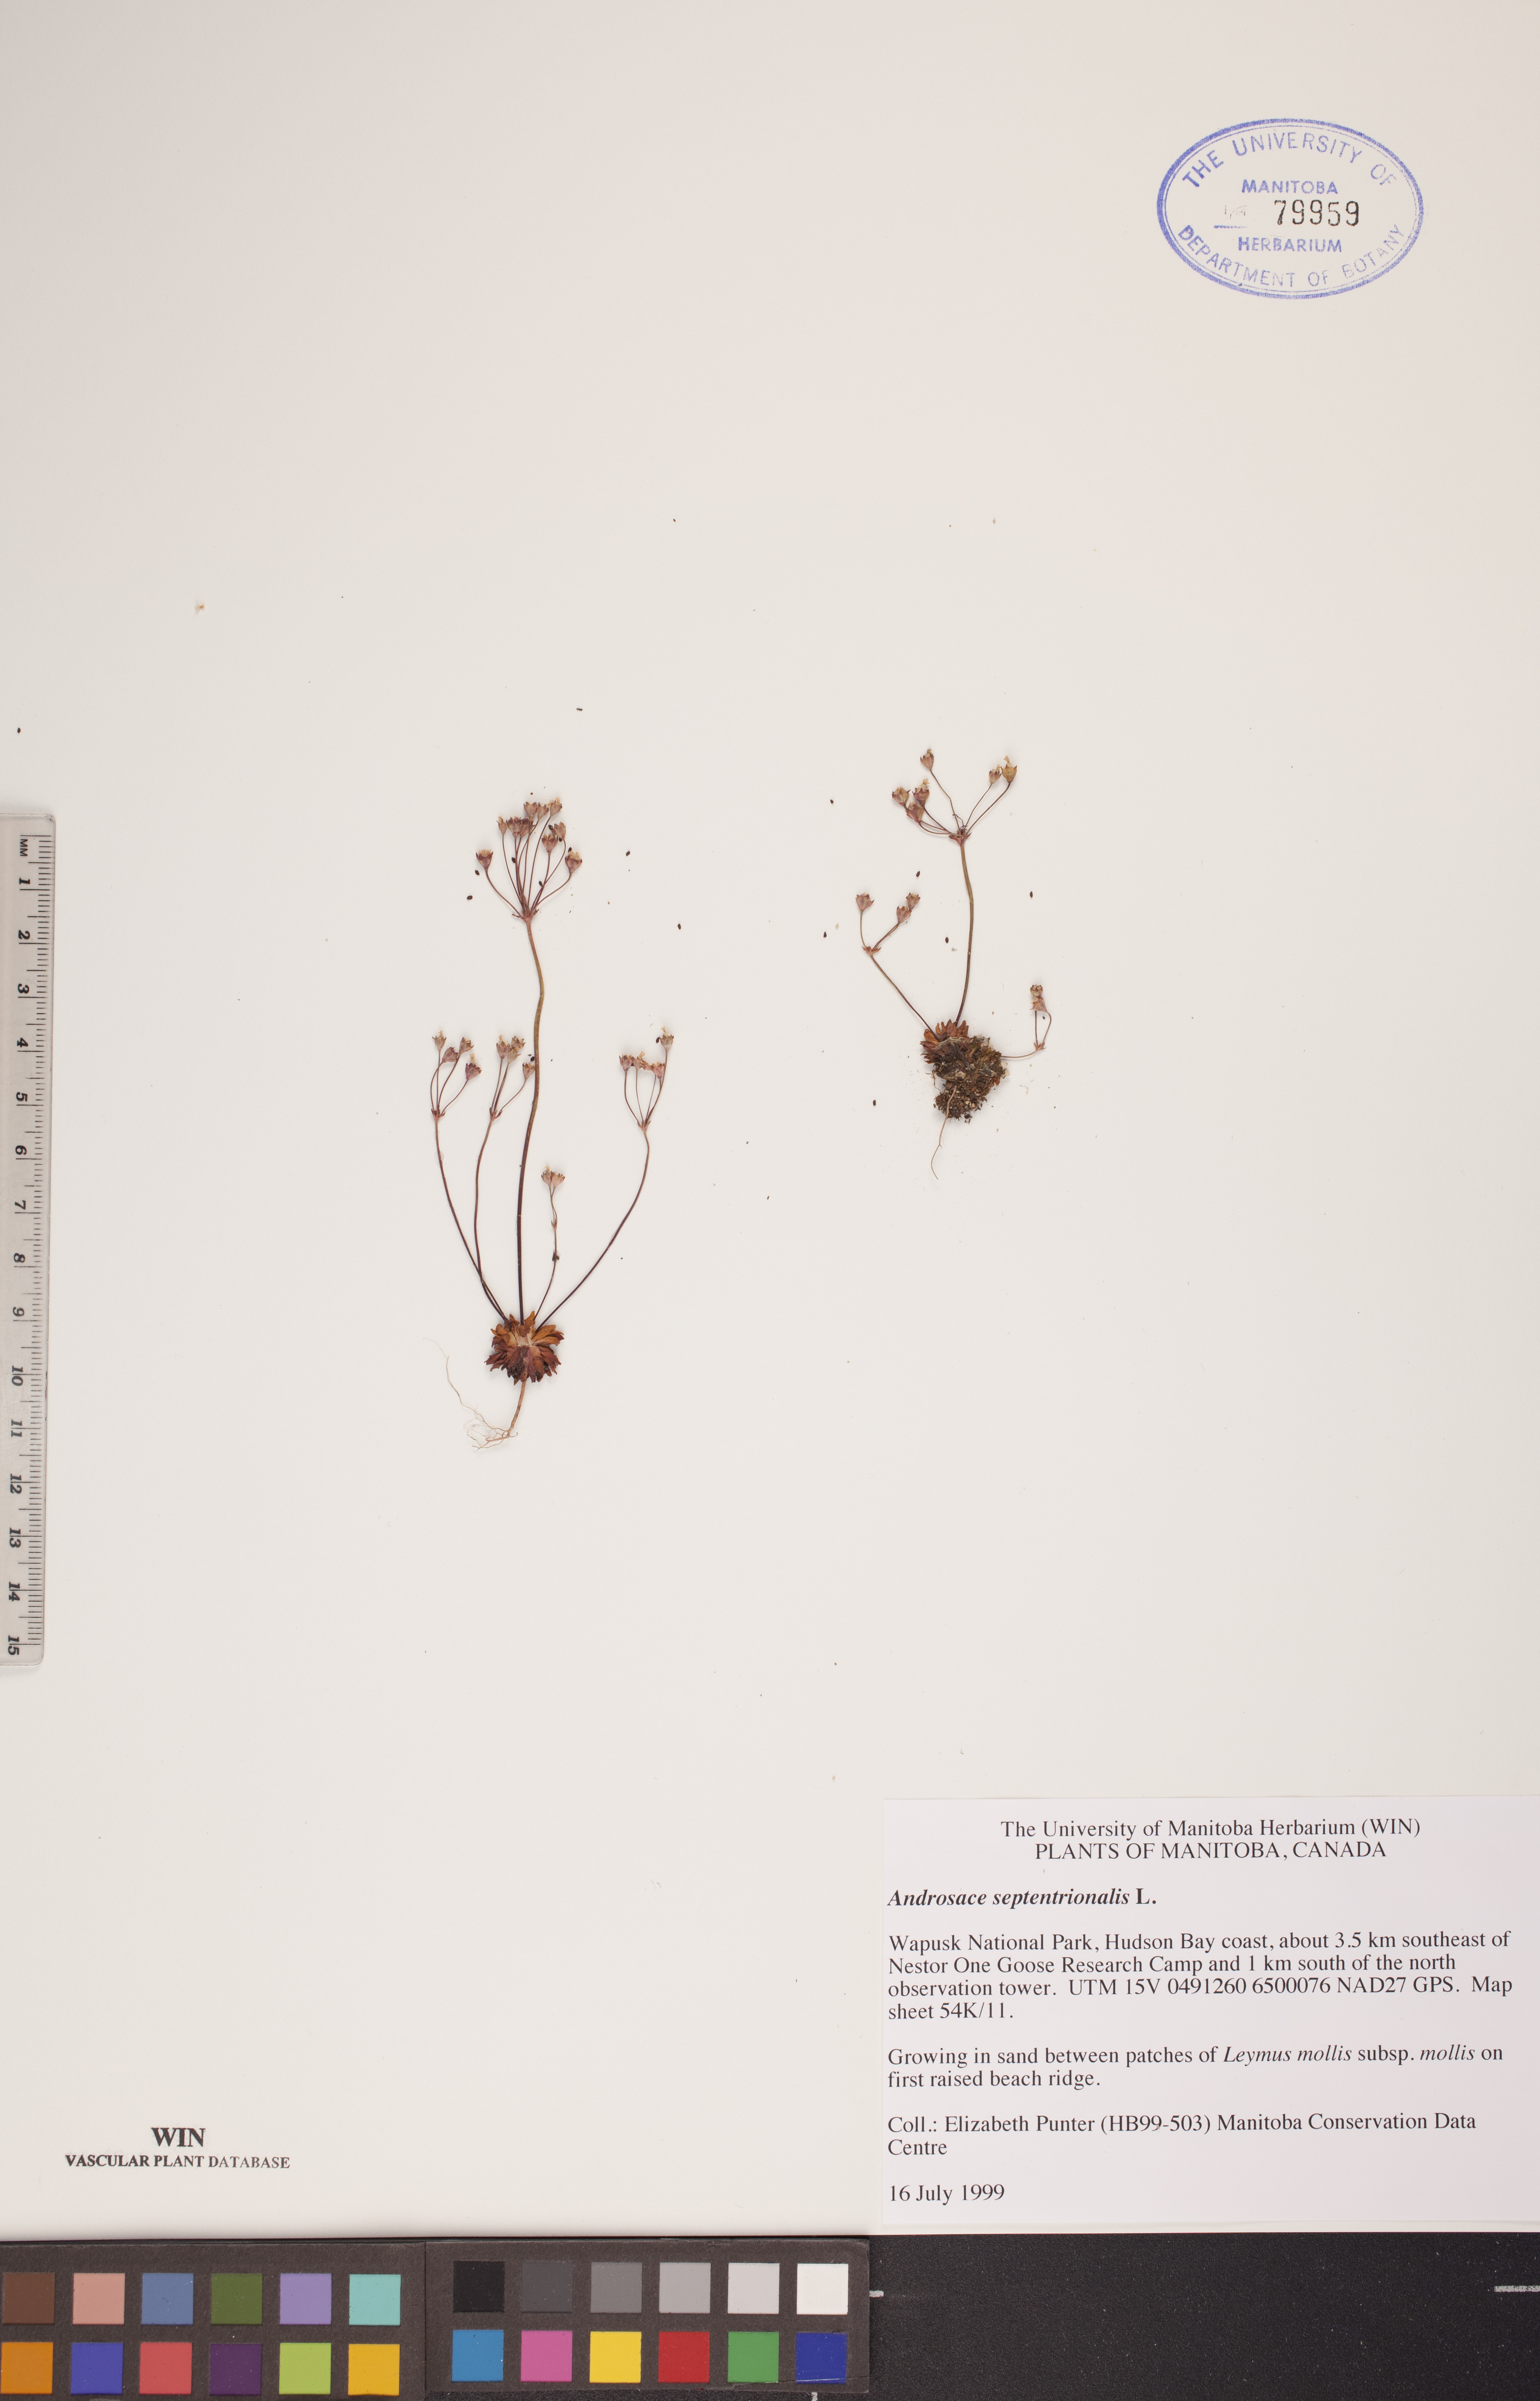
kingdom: Plantae
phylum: Tracheophyta
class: Magnoliopsida
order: Ericales
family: Primulaceae
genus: Androsace
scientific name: Androsace septentrionalis
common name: Hairy northern fairy-candelabra
